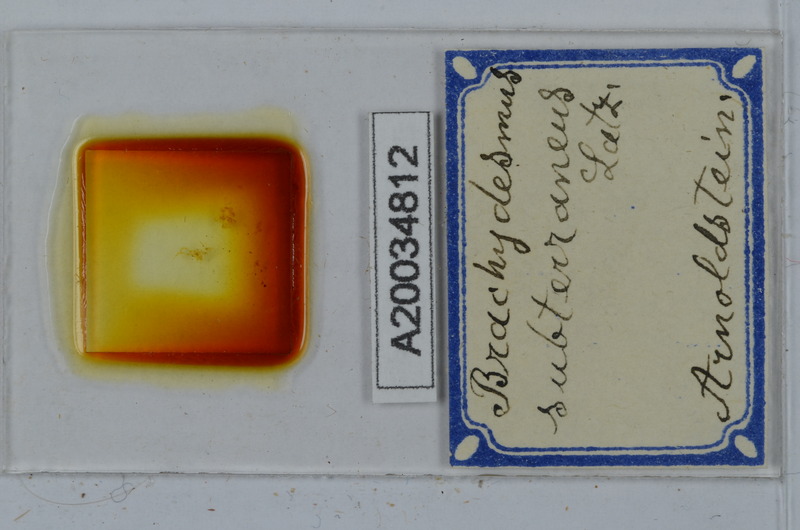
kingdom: Animalia
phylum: Arthropoda
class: Diplopoda
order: Polydesmida
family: Polydesmidae
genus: Brachydesmus
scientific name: Brachydesmus subterraneus
